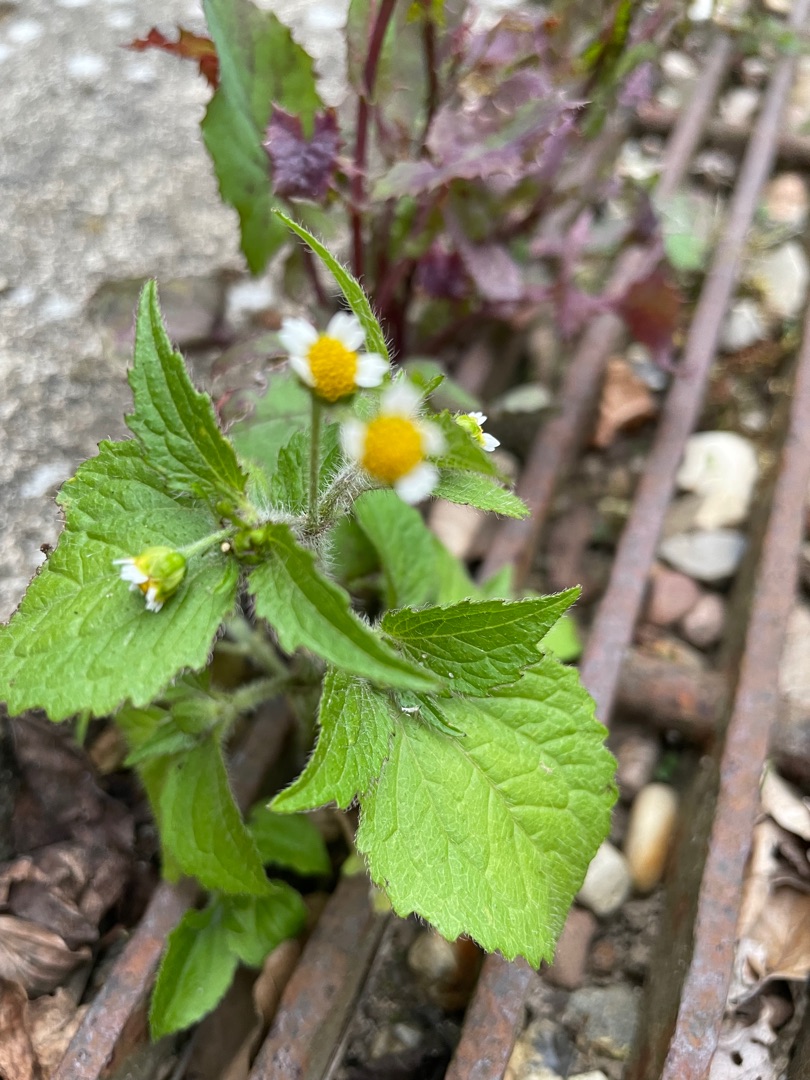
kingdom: Plantae
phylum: Tracheophyta
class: Magnoliopsida
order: Asterales
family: Asteraceae
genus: Galinsoga
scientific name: Galinsoga quadriradiata
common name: Kirtel-kortstråle
